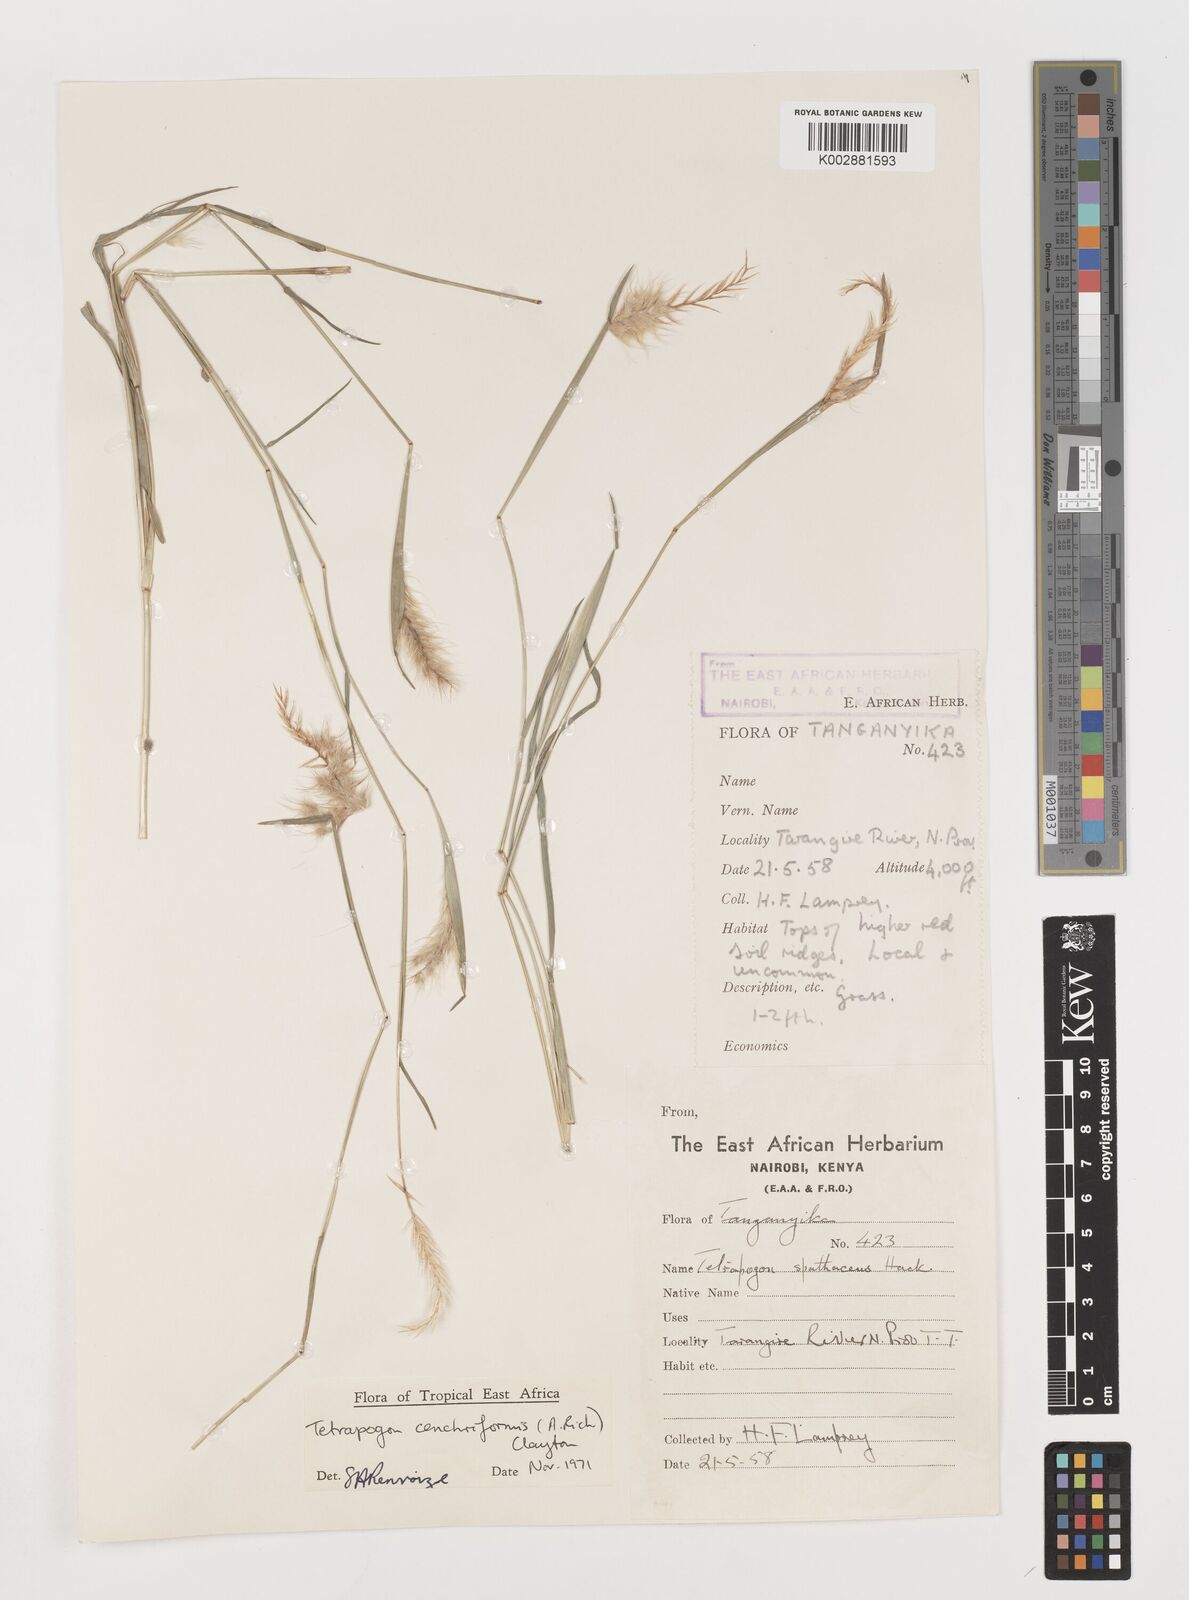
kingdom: Plantae
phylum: Tracheophyta
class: Liliopsida
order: Poales
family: Poaceae
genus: Tetrapogon
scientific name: Tetrapogon cenchriformis
